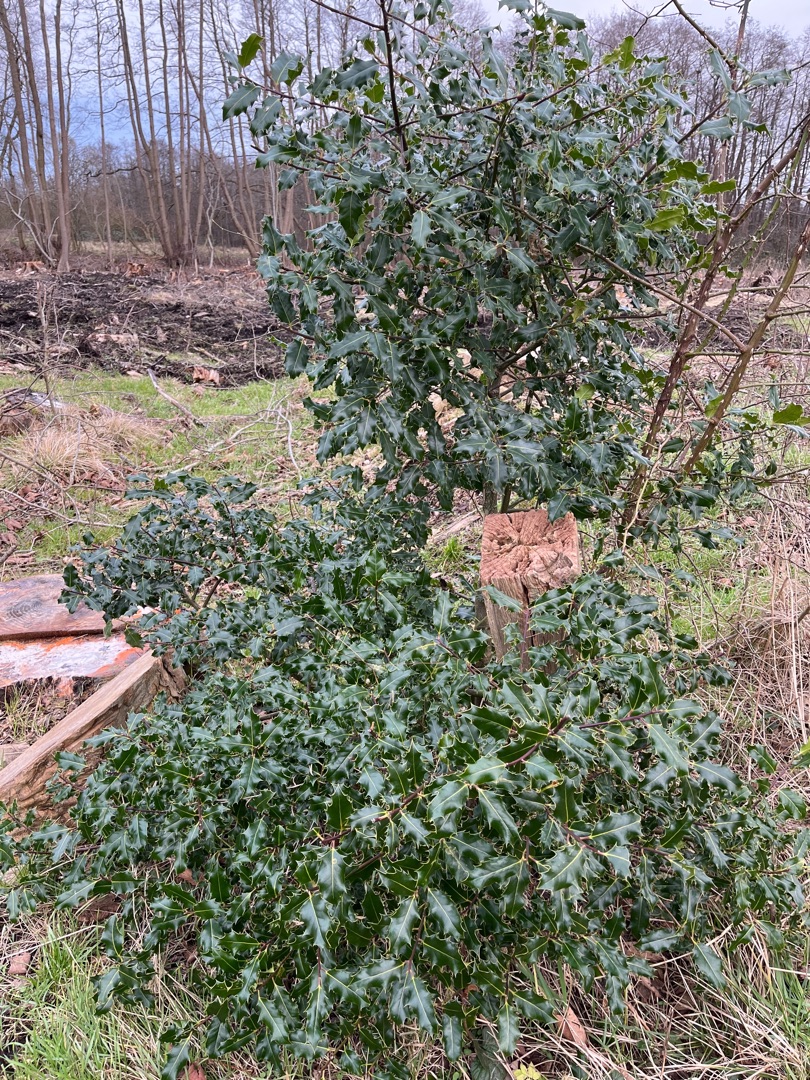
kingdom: Plantae
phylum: Tracheophyta
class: Magnoliopsida
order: Aquifoliales
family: Aquifoliaceae
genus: Ilex
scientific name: Ilex aquifolium
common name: Kristtorn
